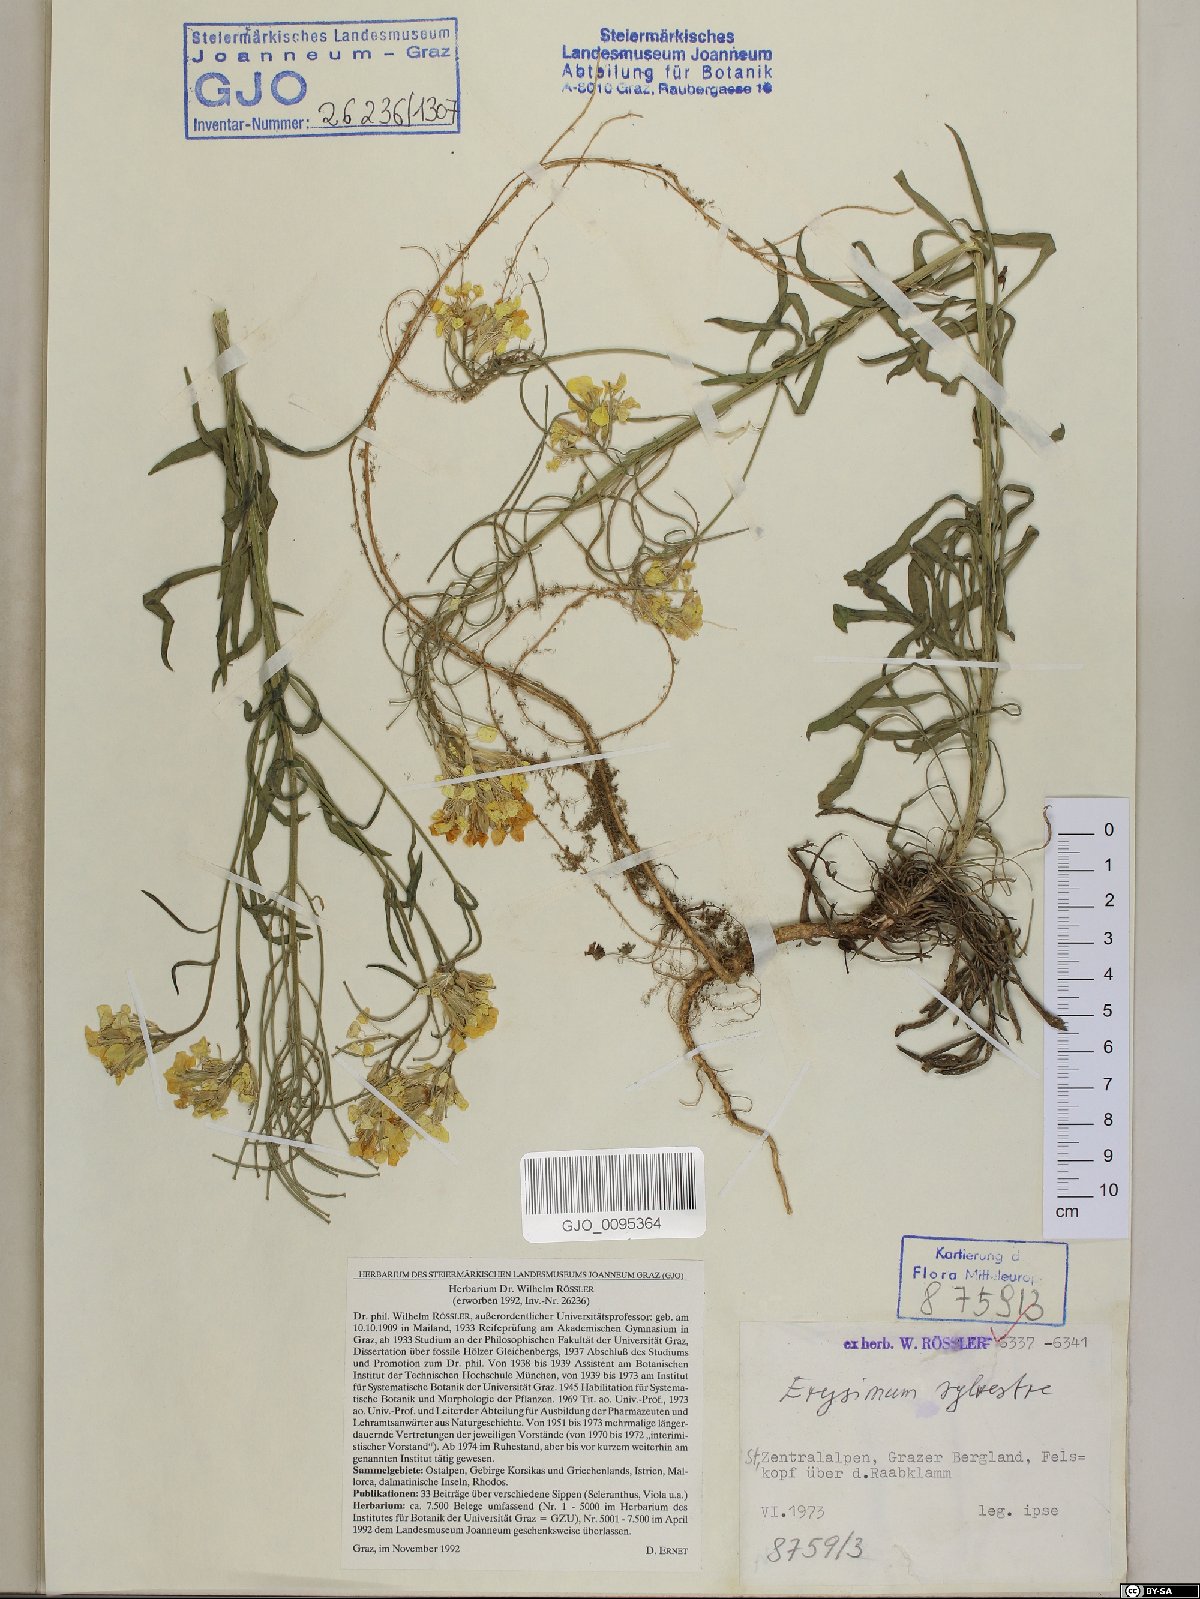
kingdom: Plantae
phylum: Tracheophyta
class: Magnoliopsida
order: Brassicales
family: Brassicaceae
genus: Erysimum
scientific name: Erysimum sylvestre
